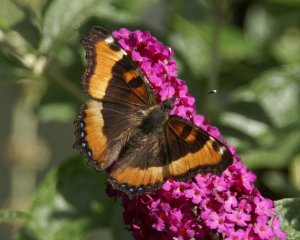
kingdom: Animalia
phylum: Arthropoda
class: Insecta
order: Lepidoptera
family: Nymphalidae
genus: Aglais
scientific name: Aglais milberti
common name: Milbert's Tortoiseshell
